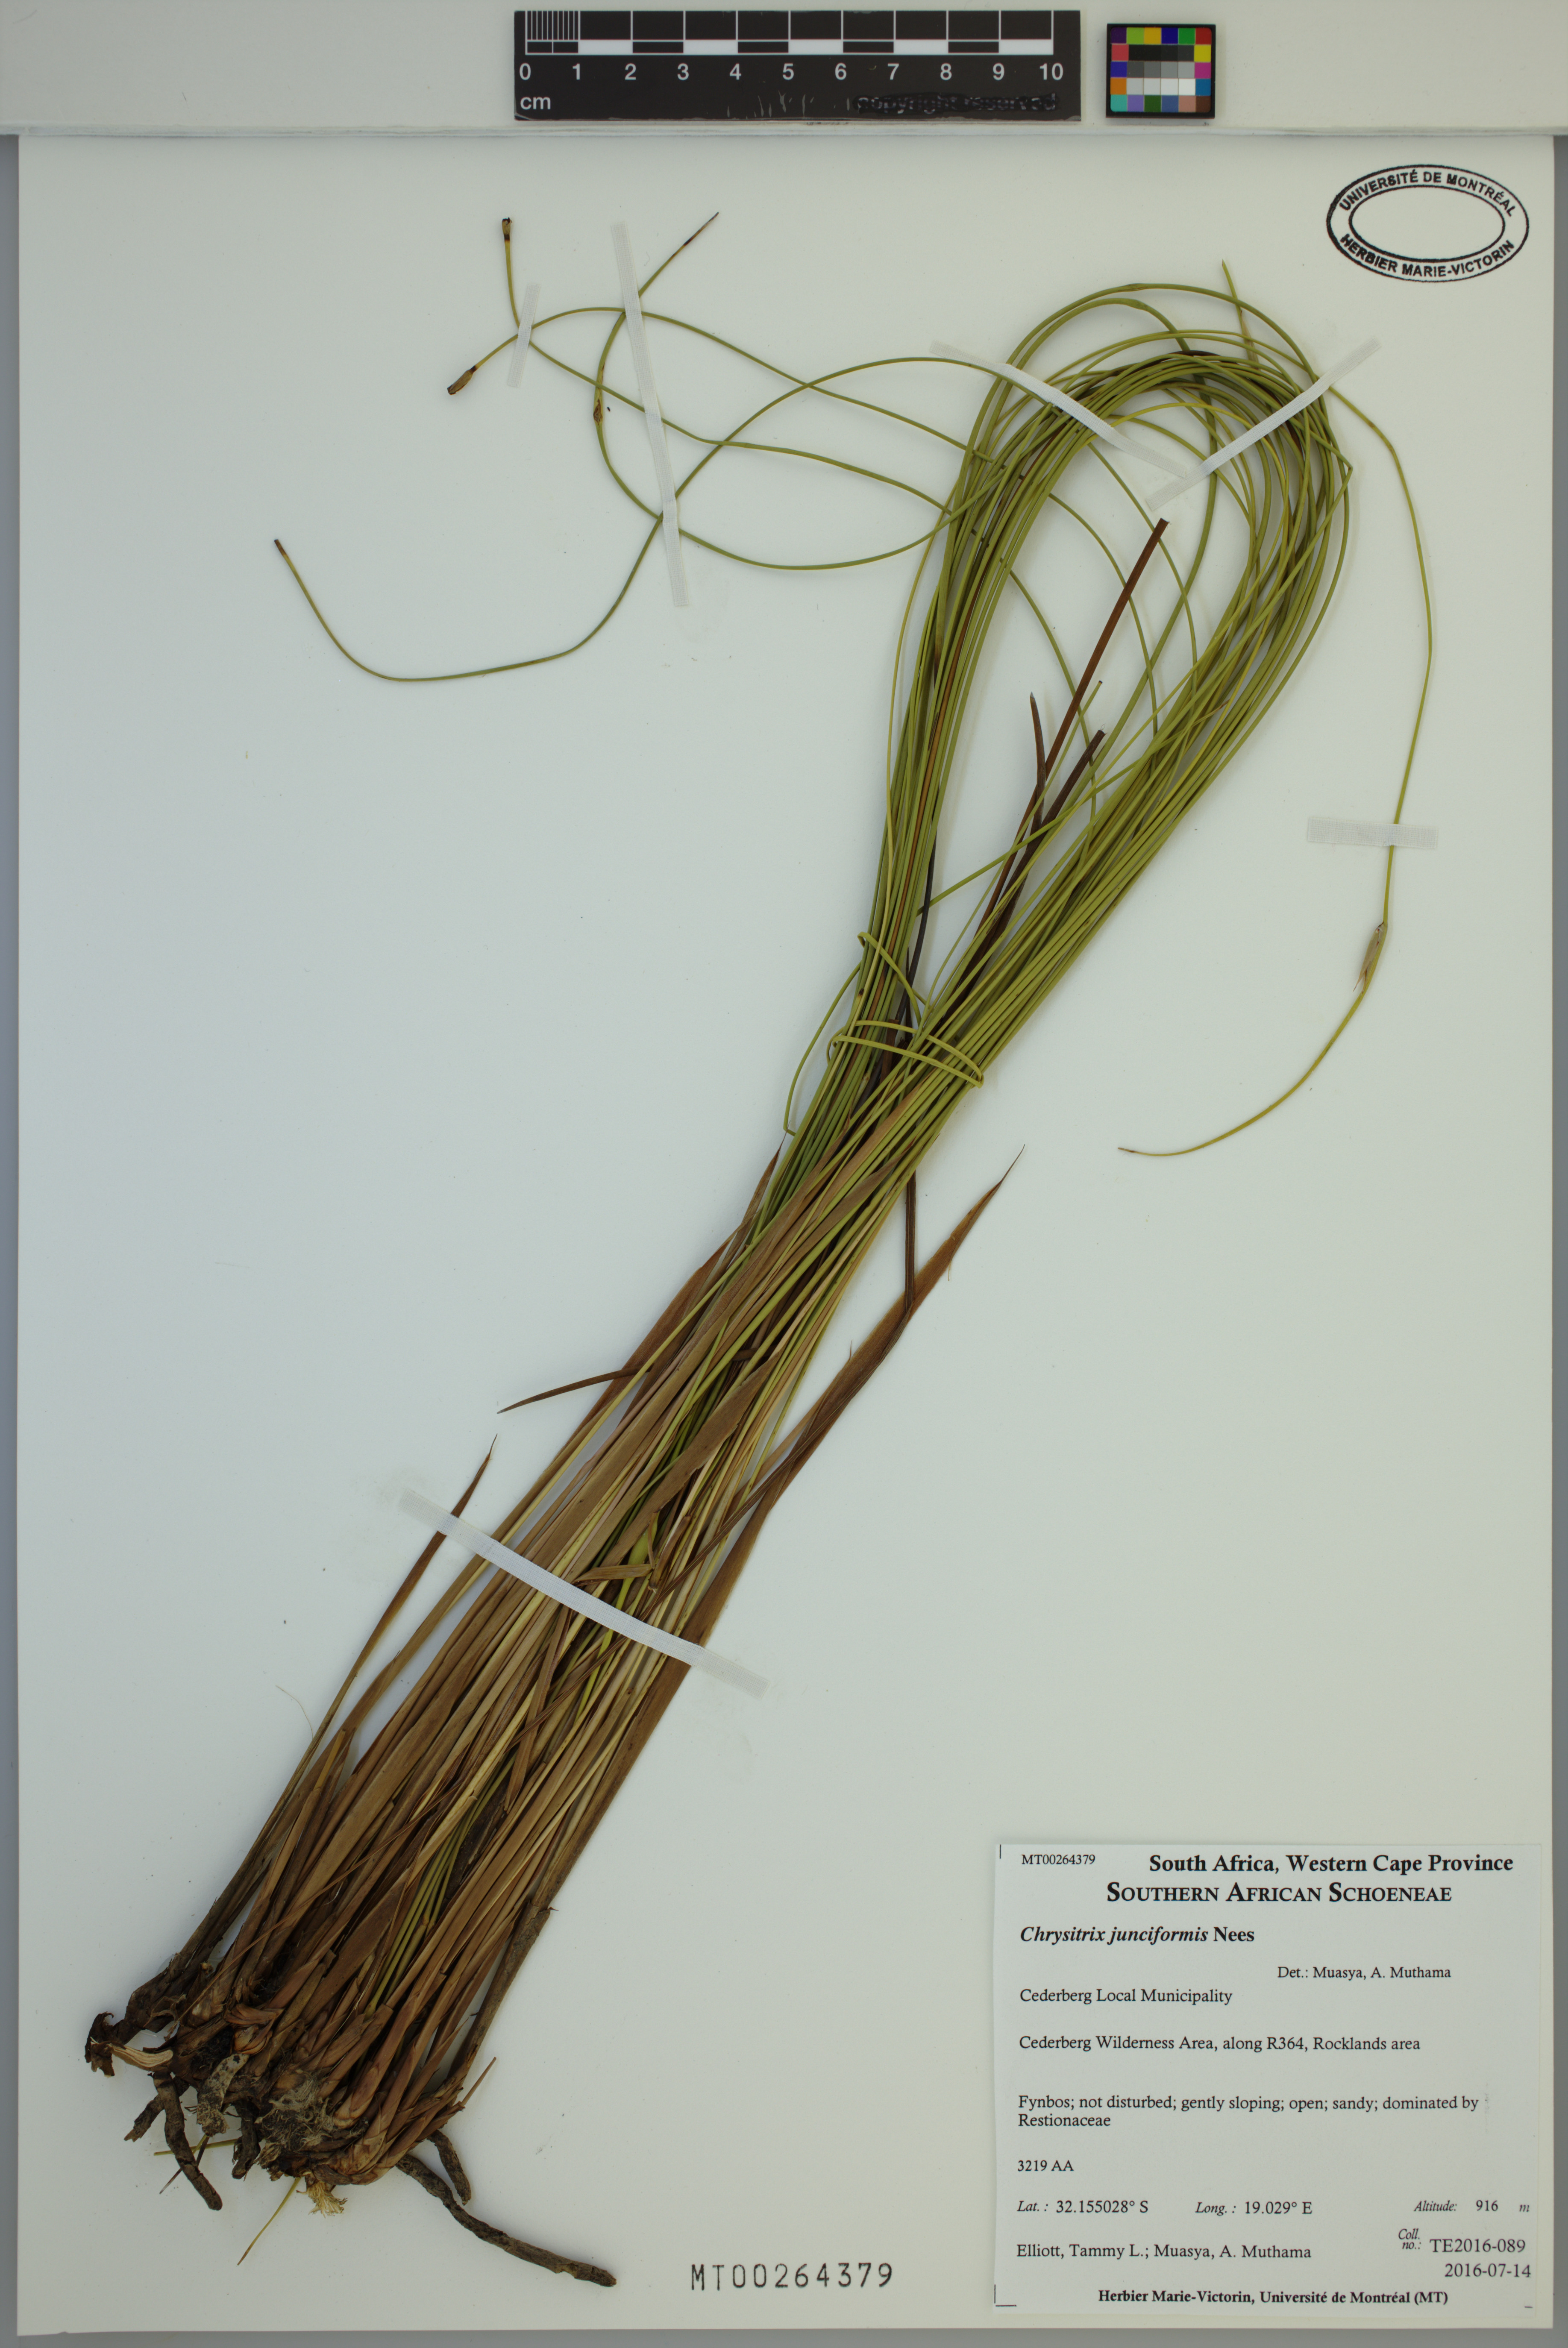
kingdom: Plantae
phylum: Tracheophyta
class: Liliopsida
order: Poales
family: Cyperaceae
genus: Chrysitrix
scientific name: Chrysitrix junciformis
